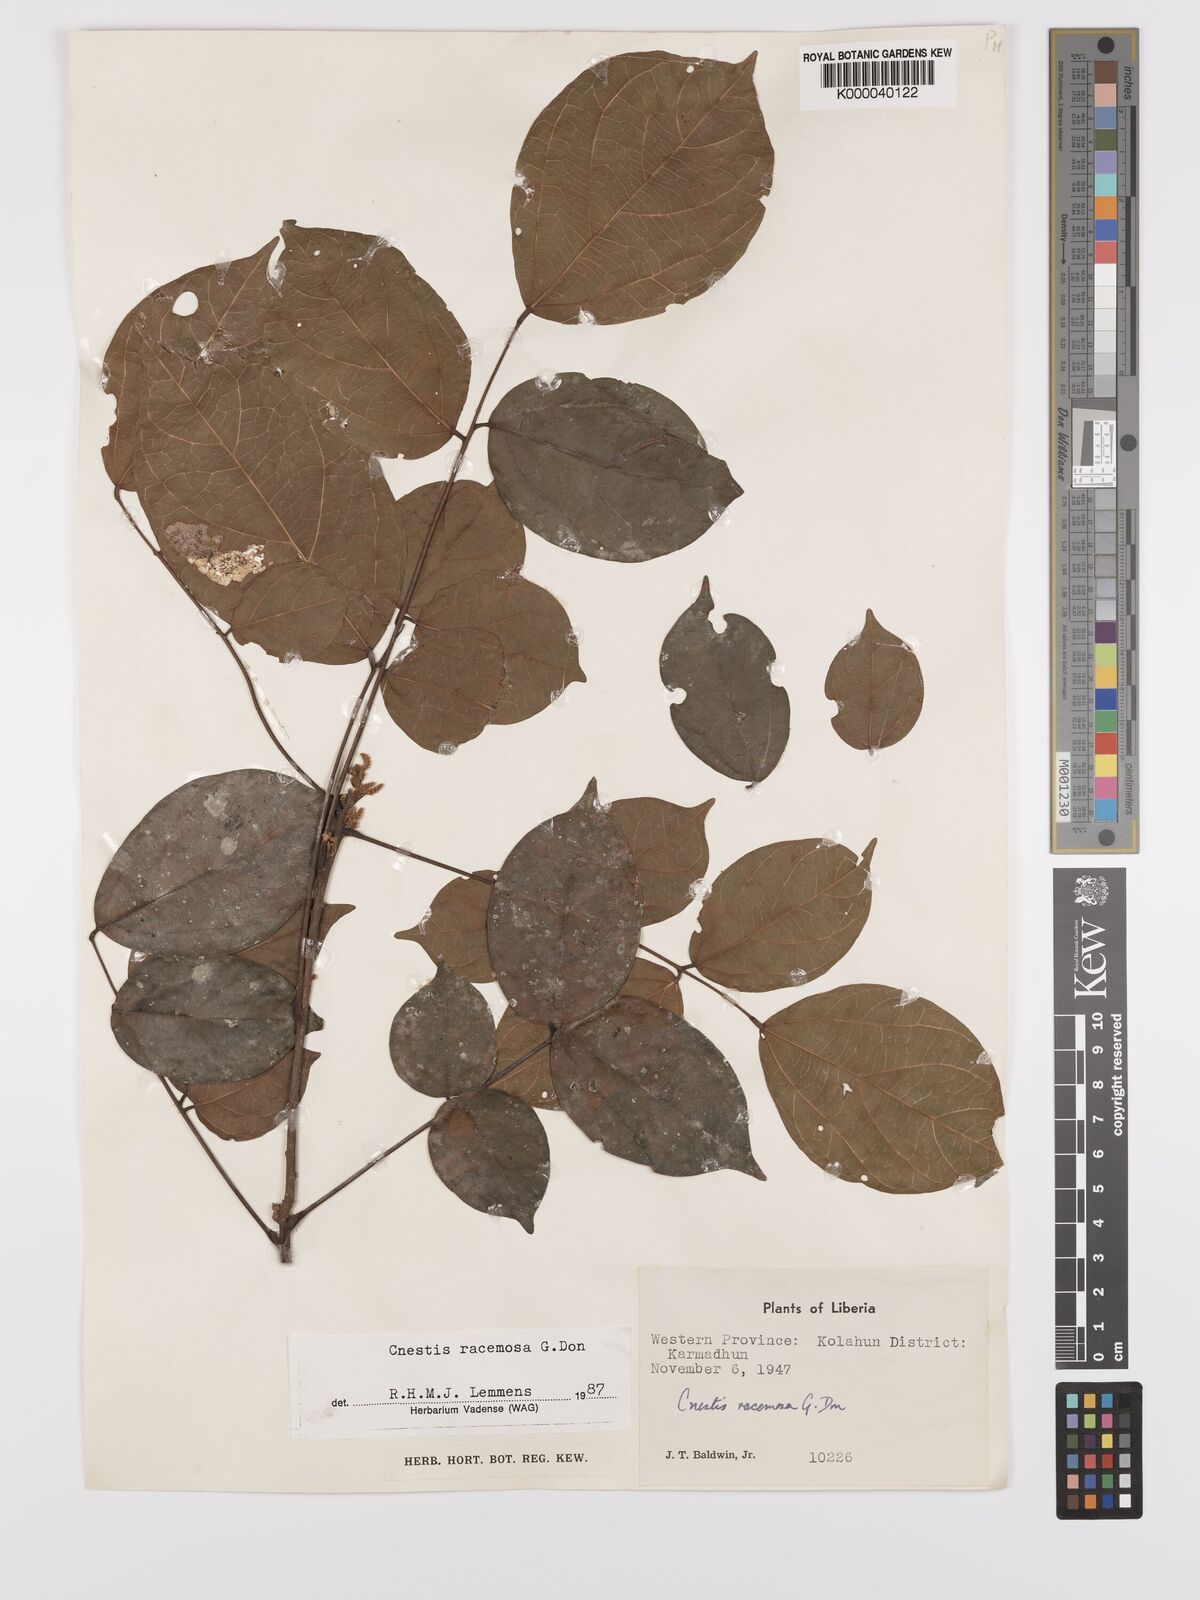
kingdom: Plantae
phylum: Tracheophyta
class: Magnoliopsida
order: Oxalidales
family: Connaraceae
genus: Cnestis
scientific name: Cnestis racemosa
